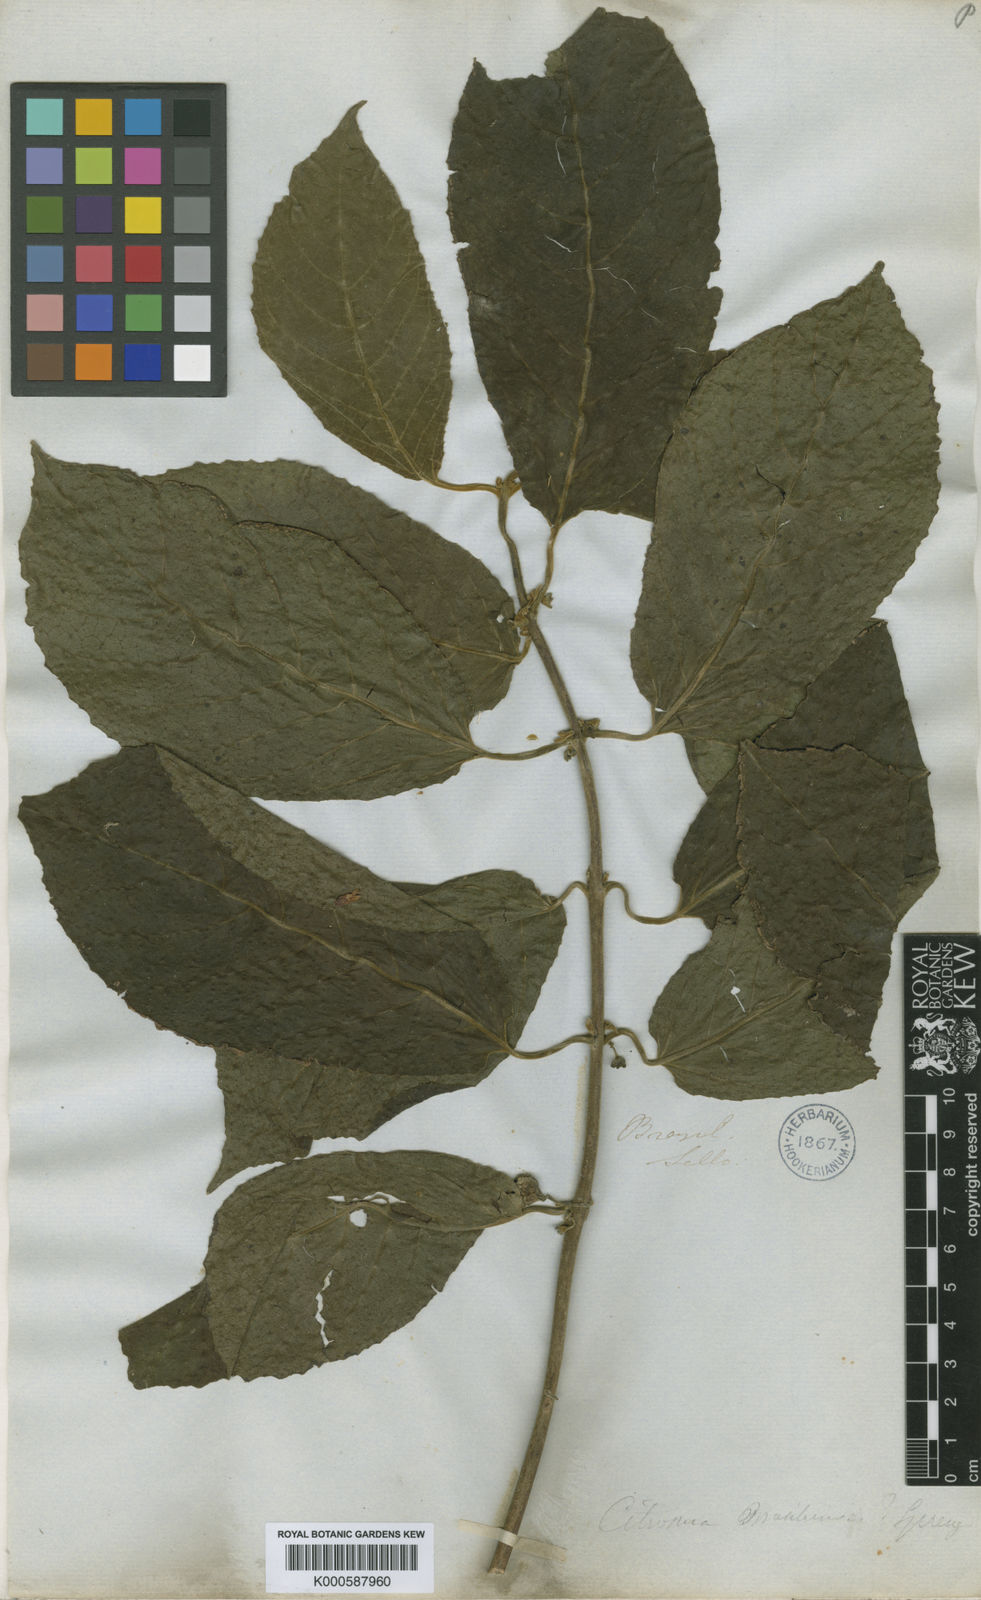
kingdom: Plantae
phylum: Tracheophyta
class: Magnoliopsida
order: Laurales
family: Siparunaceae
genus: Siparuna
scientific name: Siparuna brasiliensis
